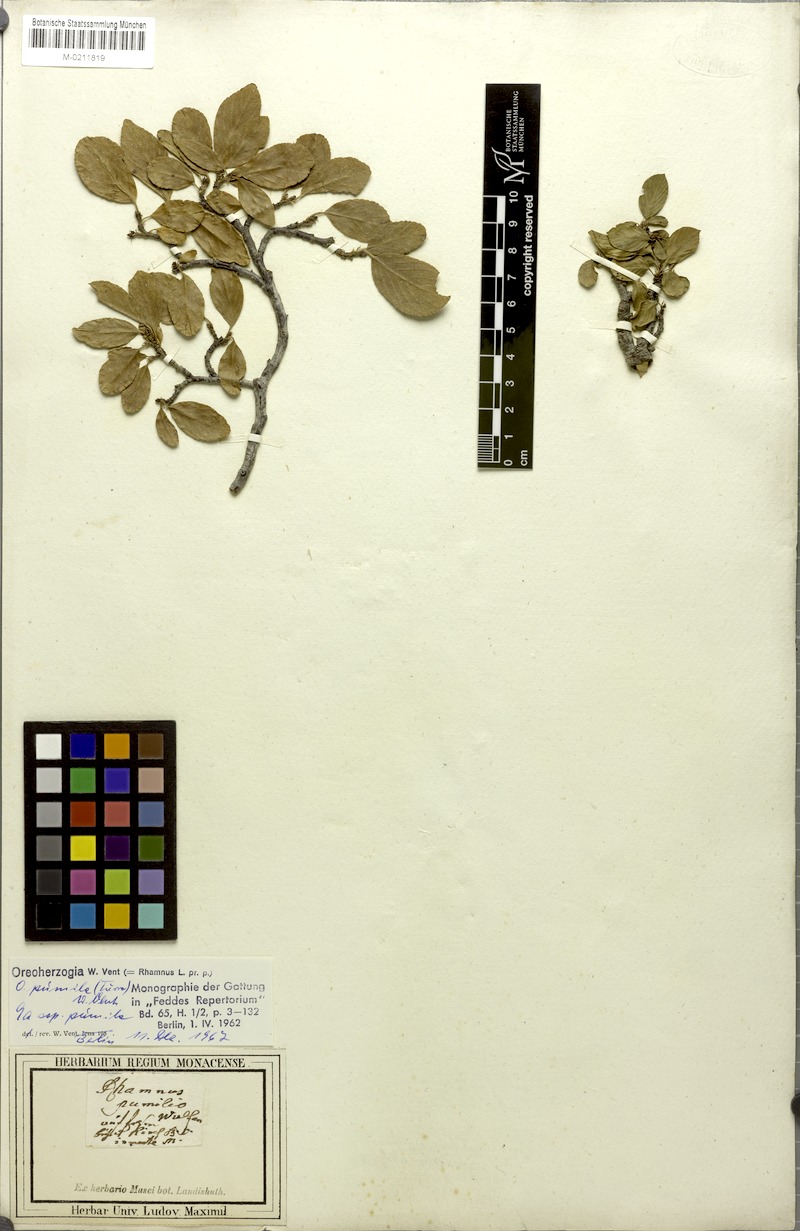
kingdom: Plantae
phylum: Tracheophyta
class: Magnoliopsida
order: Rosales
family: Rhamnaceae
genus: Frangula
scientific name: Frangula rupestris
